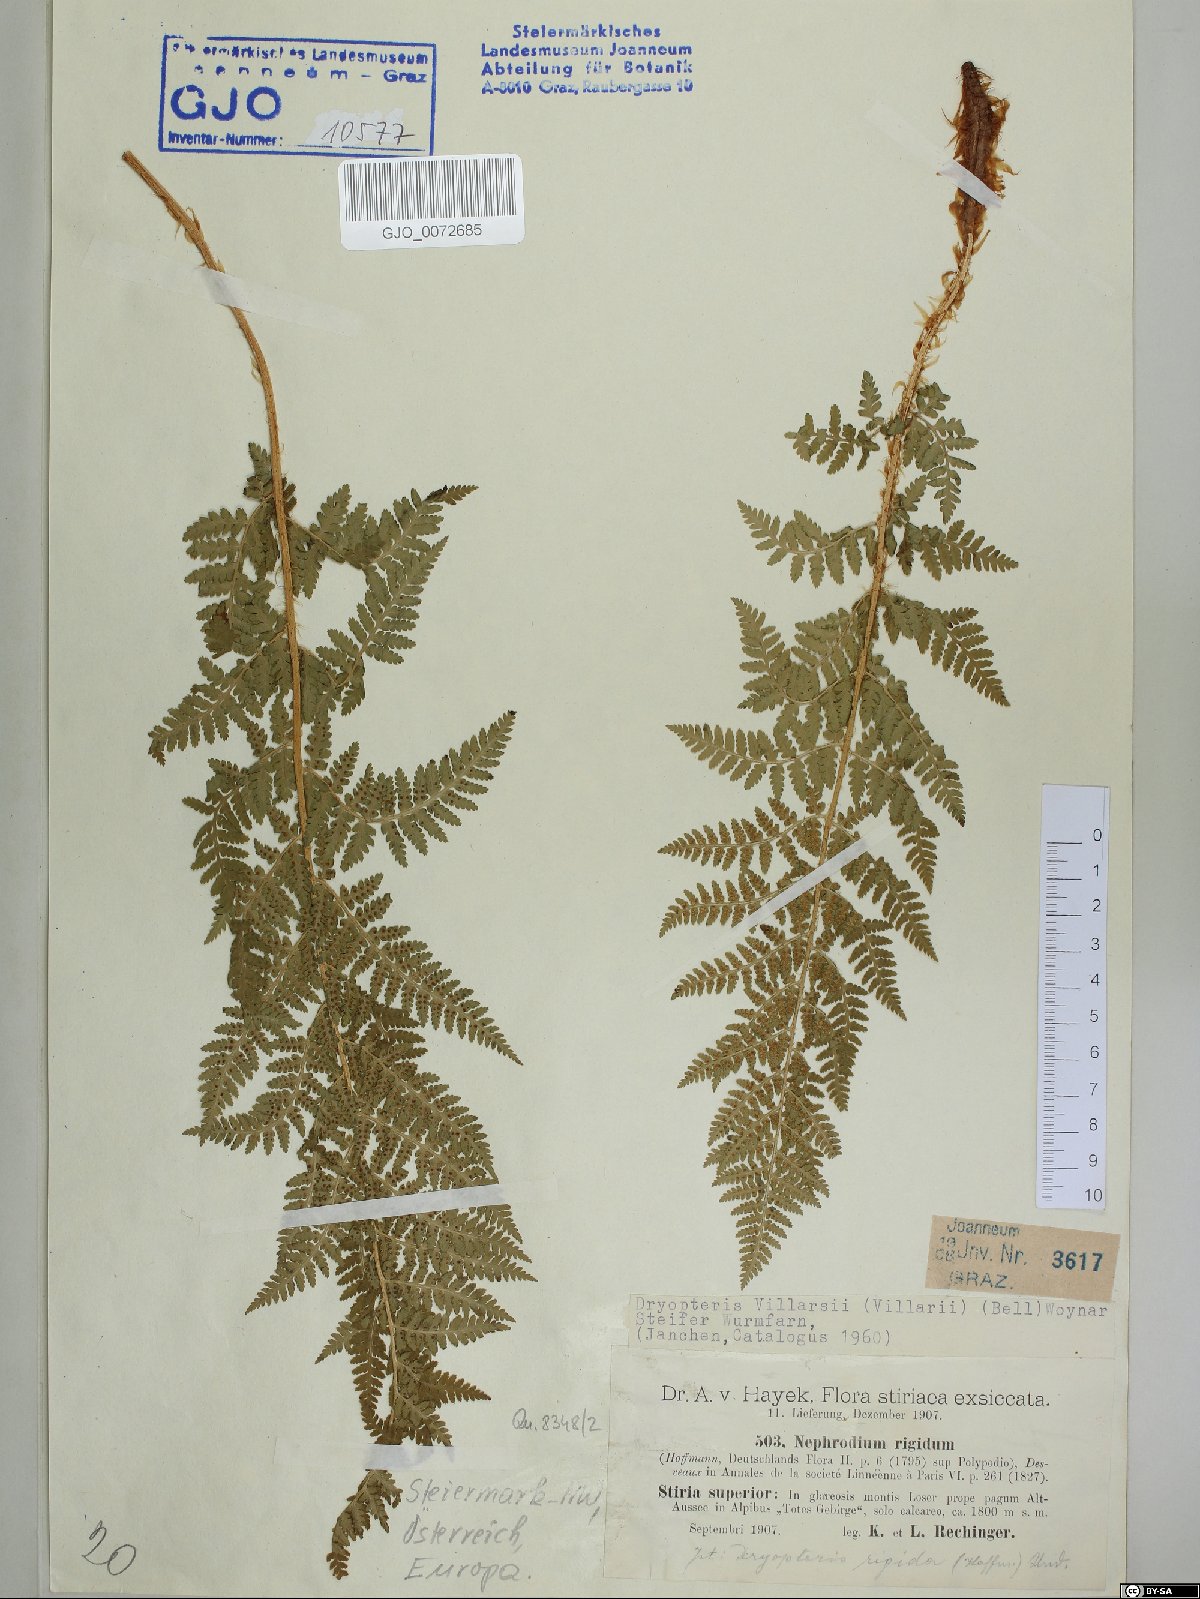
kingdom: Plantae
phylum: Tracheophyta
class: Polypodiopsida
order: Polypodiales
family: Dryopteridaceae
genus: Dryopteris
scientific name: Dryopteris villarii
